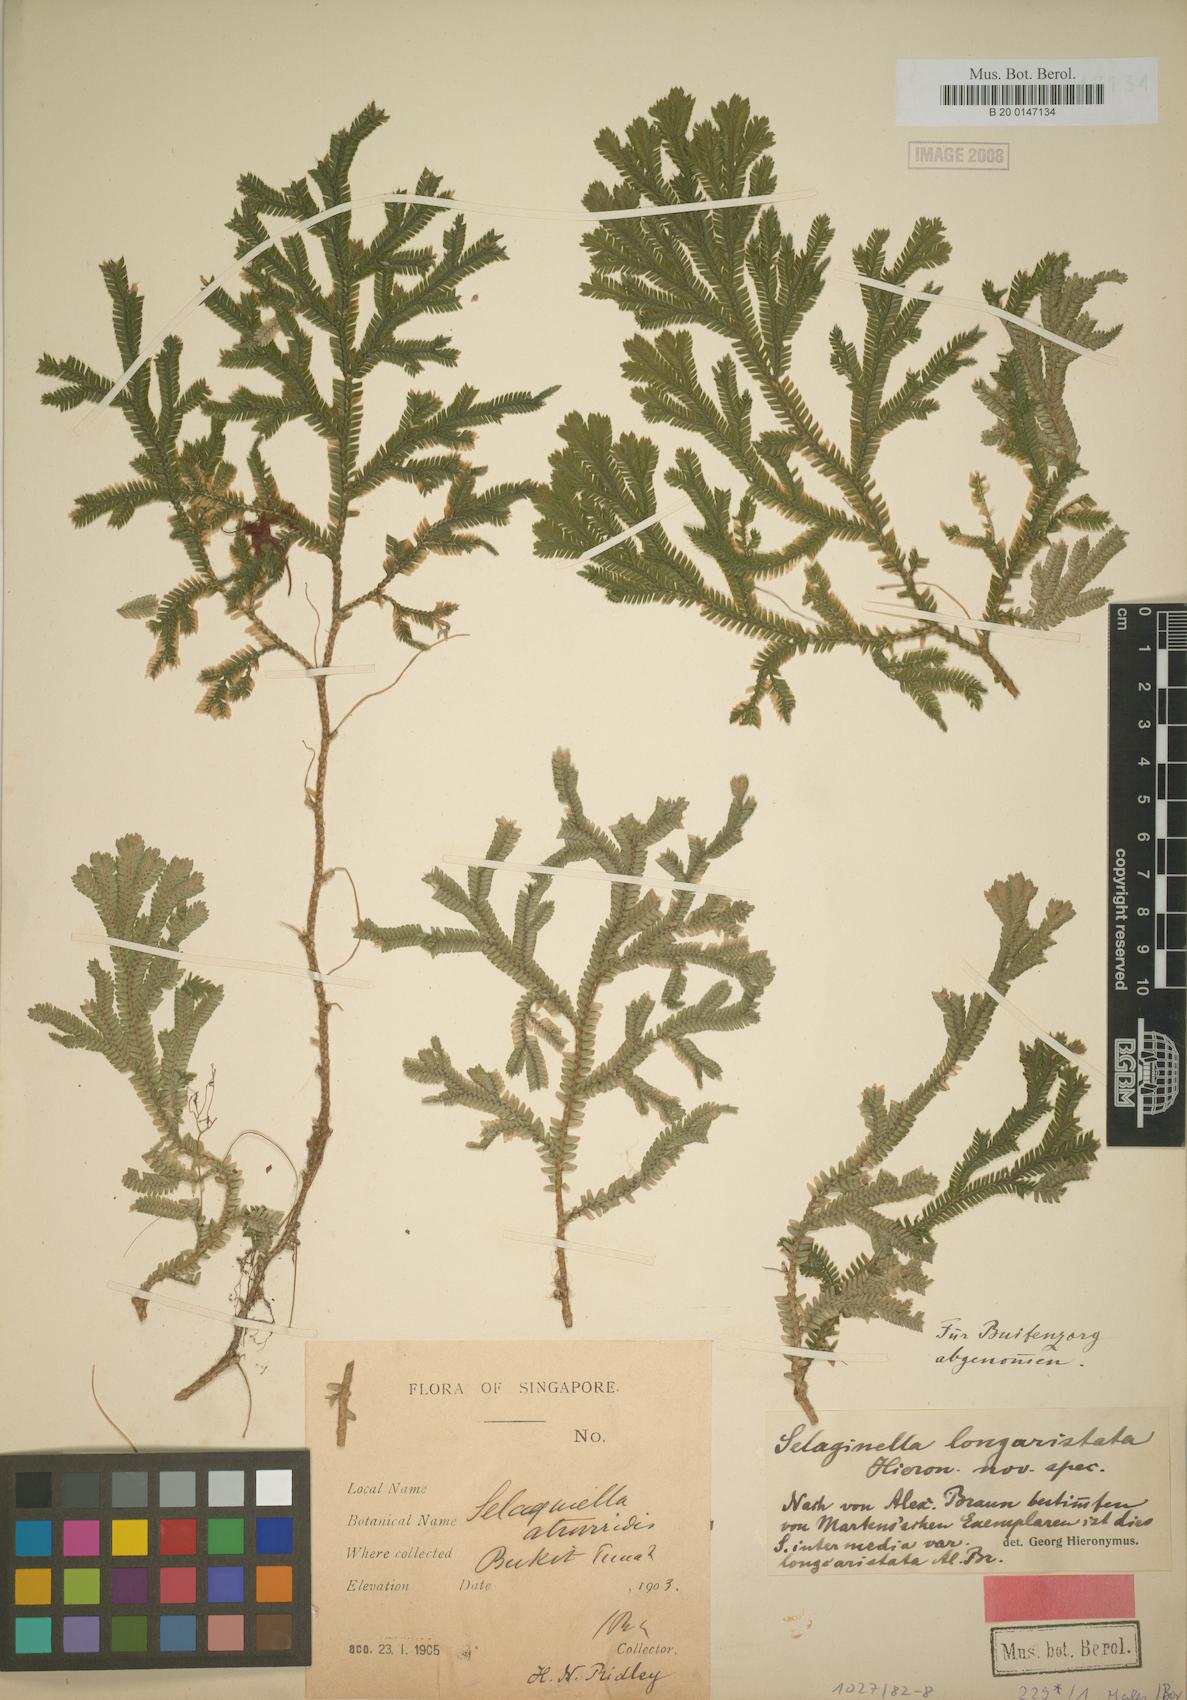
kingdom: Plantae
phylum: Tracheophyta
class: Lycopodiopsida
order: Selaginellales
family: Selaginellaceae
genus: Selaginella
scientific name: Selaginella longiaristata
